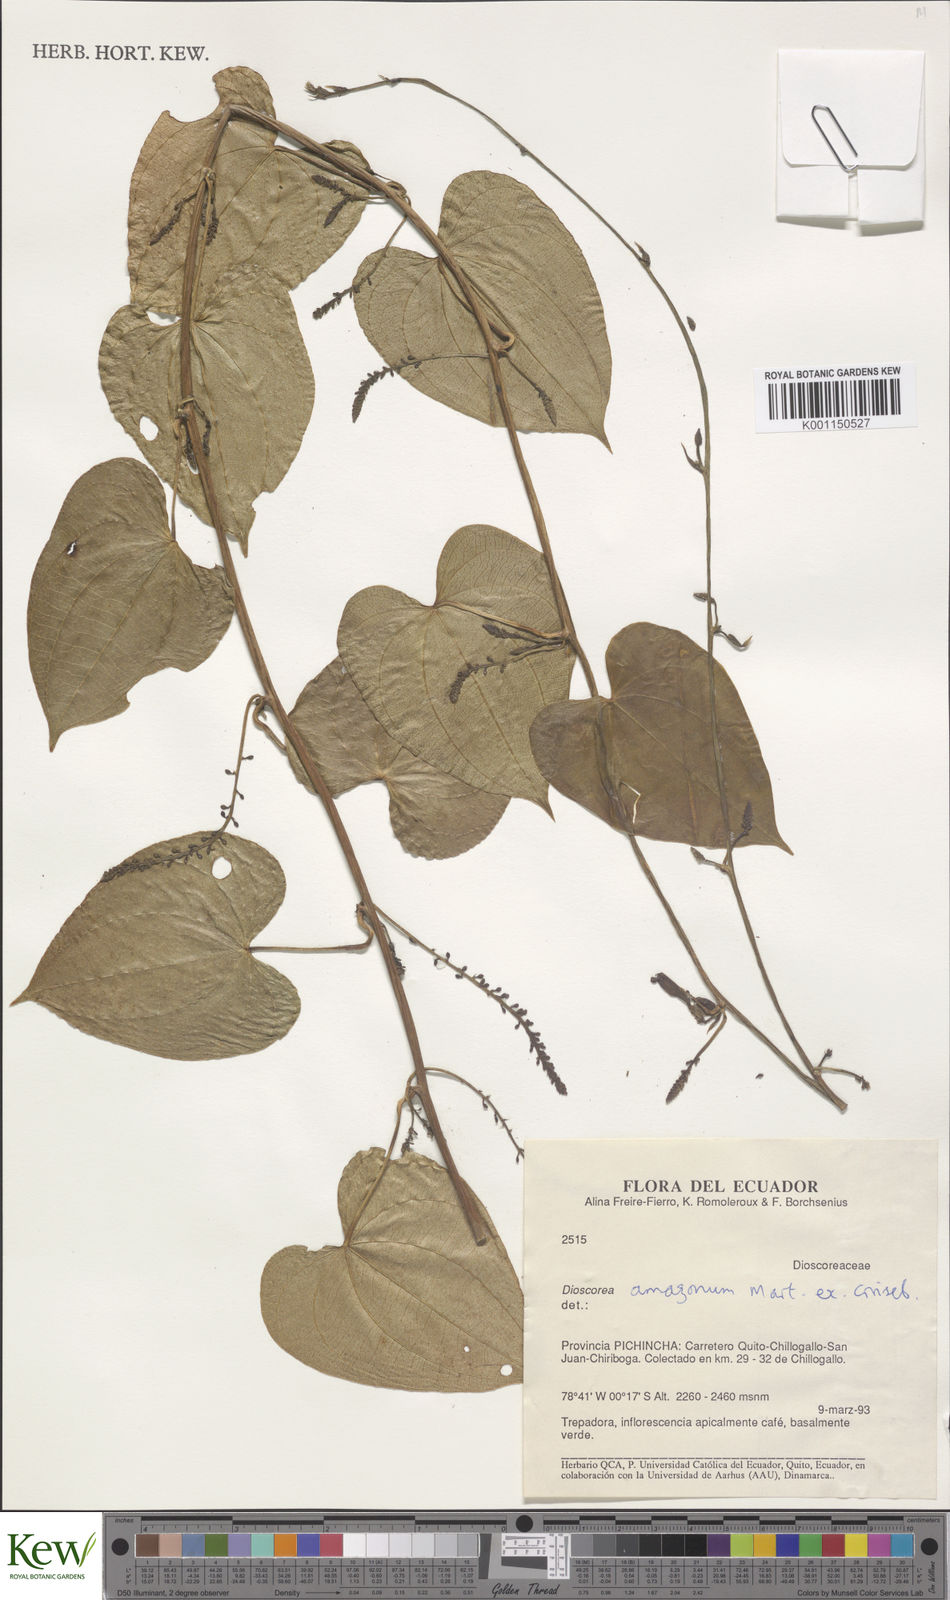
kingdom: Plantae
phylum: Tracheophyta
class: Liliopsida
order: Dioscoreales
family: Dioscoreaceae
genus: Dioscorea
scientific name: Dioscorea amazonum
